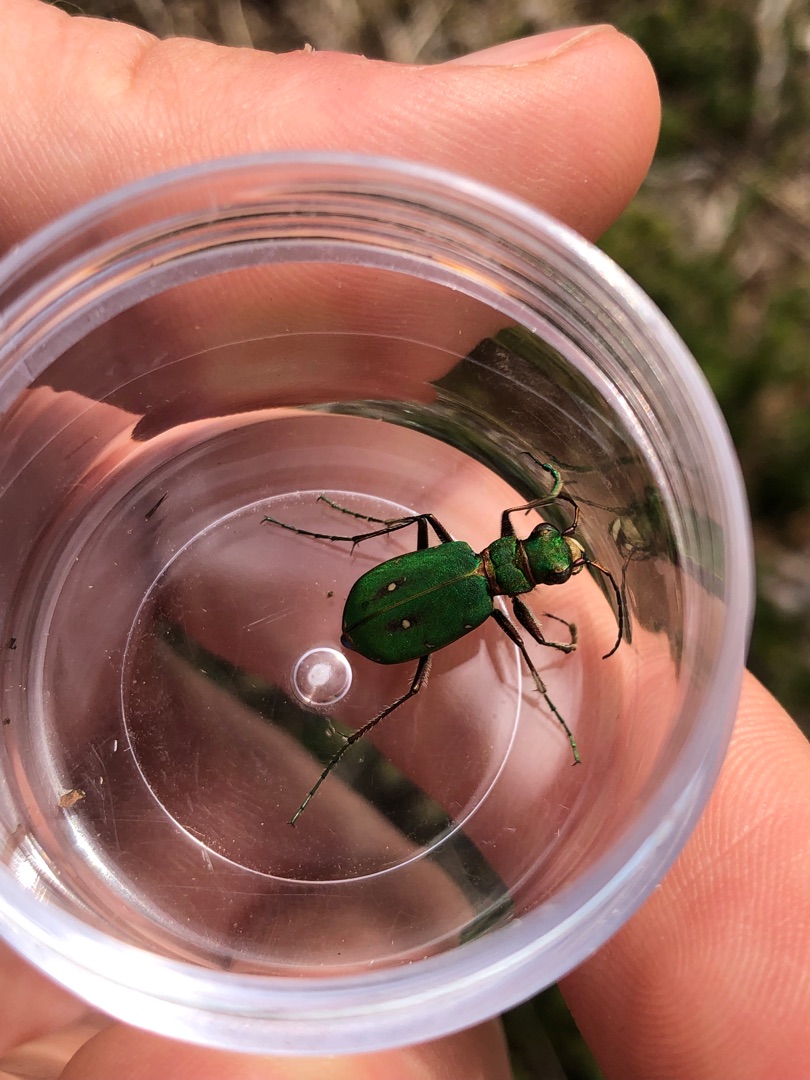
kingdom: Animalia
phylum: Arthropoda
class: Insecta
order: Coleoptera
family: Carabidae
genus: Cicindela
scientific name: Cicindela campestris
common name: Grøn sandspringer
